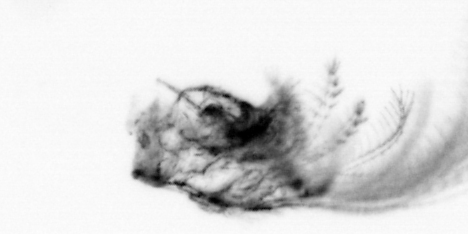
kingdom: Animalia
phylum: Arthropoda
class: Maxillopoda
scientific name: Maxillopoda
